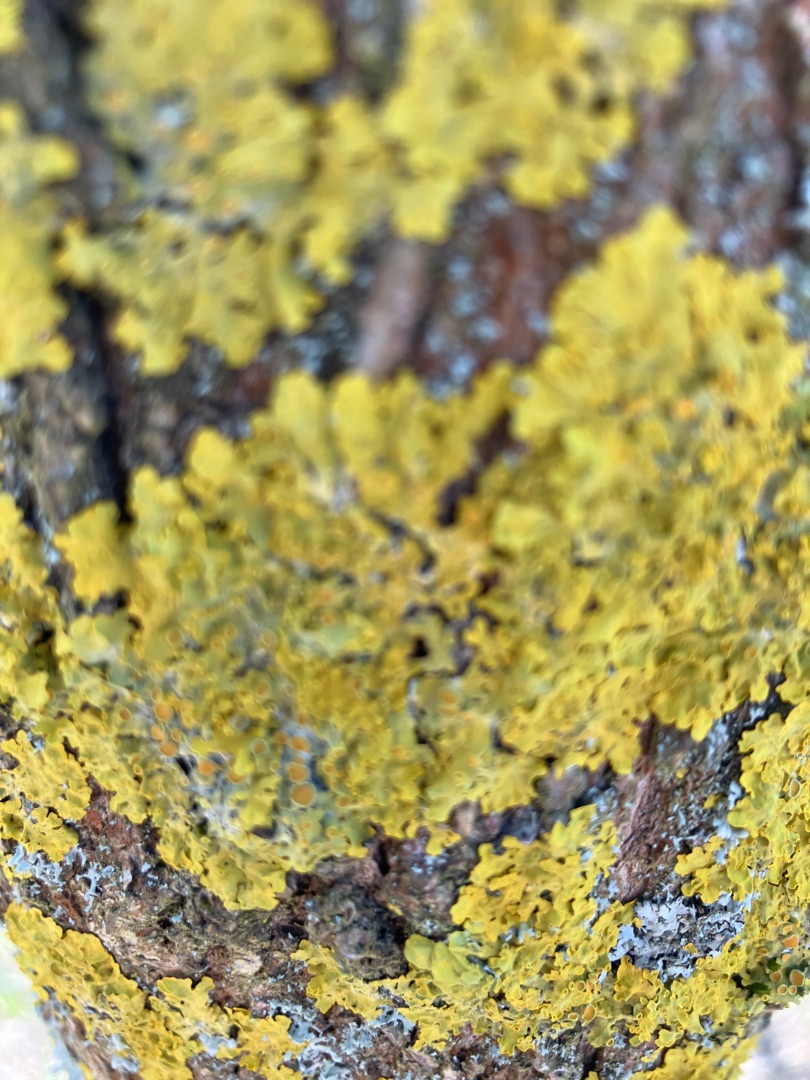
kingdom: Fungi
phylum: Ascomycota
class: Lecanoromycetes
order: Teloschistales
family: Teloschistaceae
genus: Xanthoria
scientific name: Xanthoria parietina
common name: Almindelig væggelav
